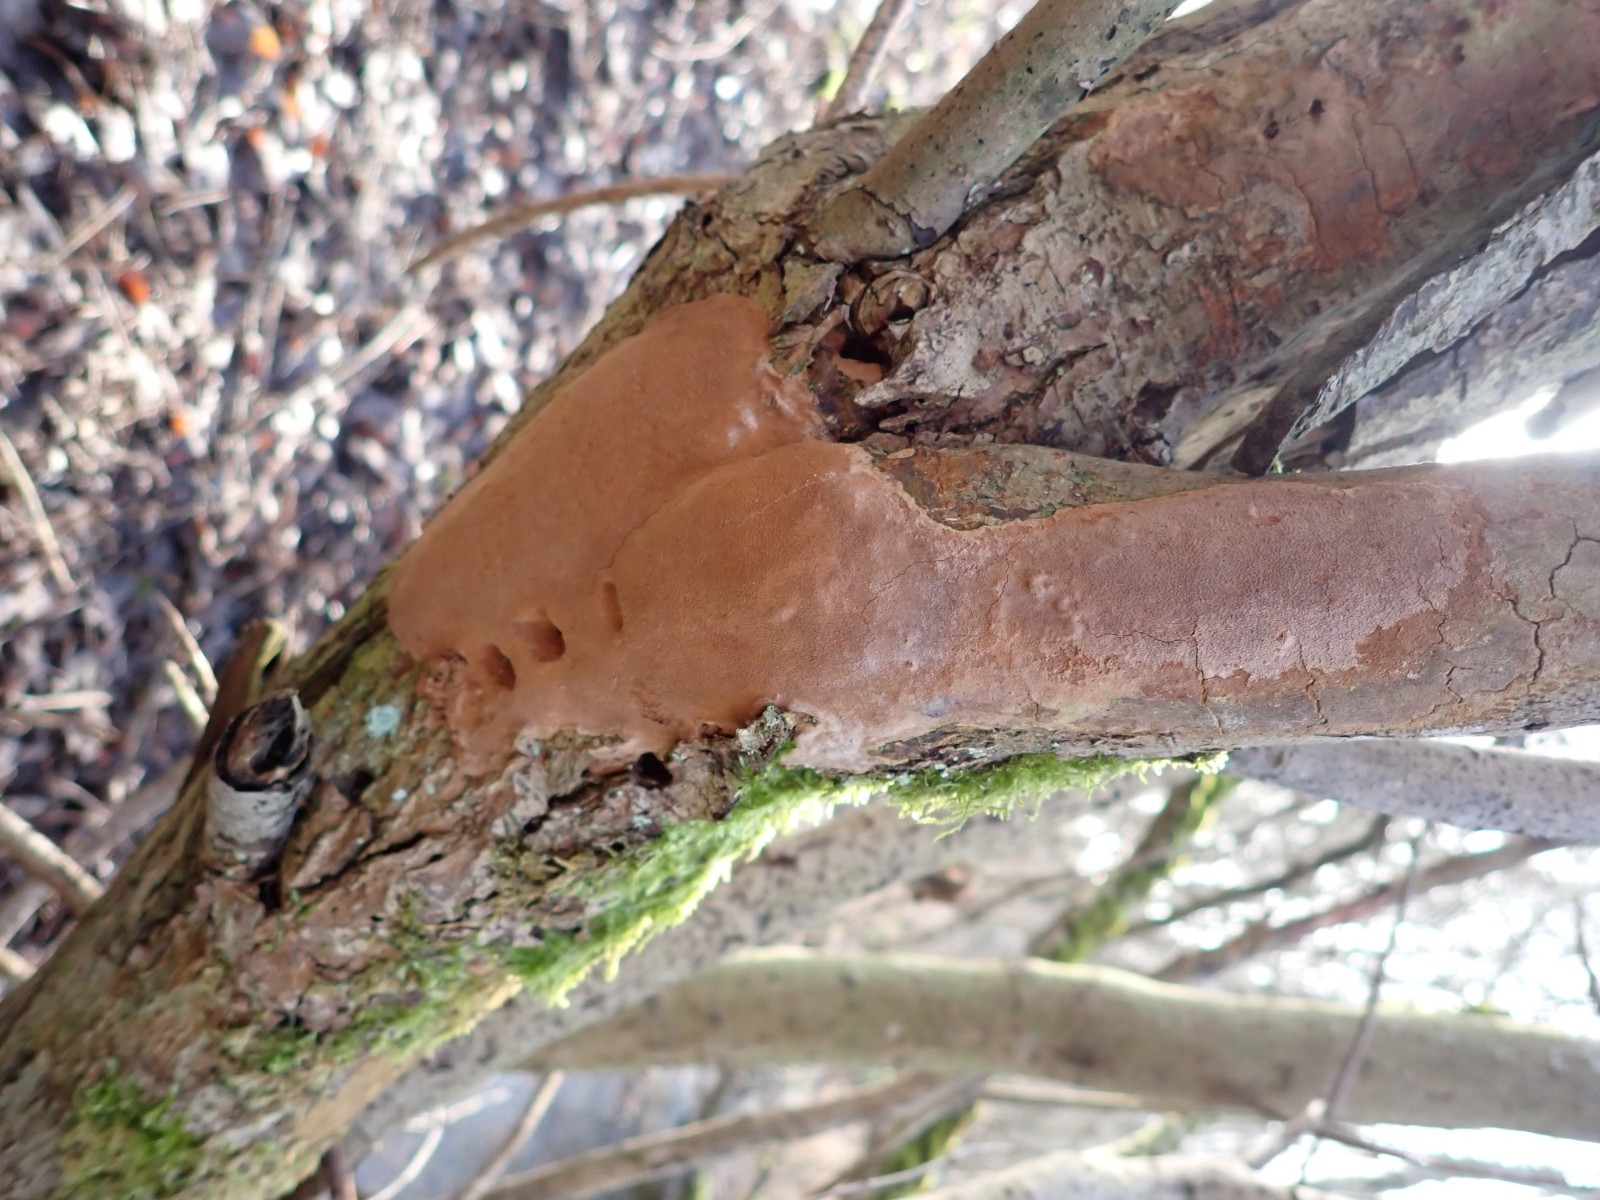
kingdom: Fungi
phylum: Basidiomycota
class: Agaricomycetes
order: Hymenochaetales
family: Hymenochaetaceae
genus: Fomitiporia
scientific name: Fomitiporia punctata
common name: pude-ildporesvamp
